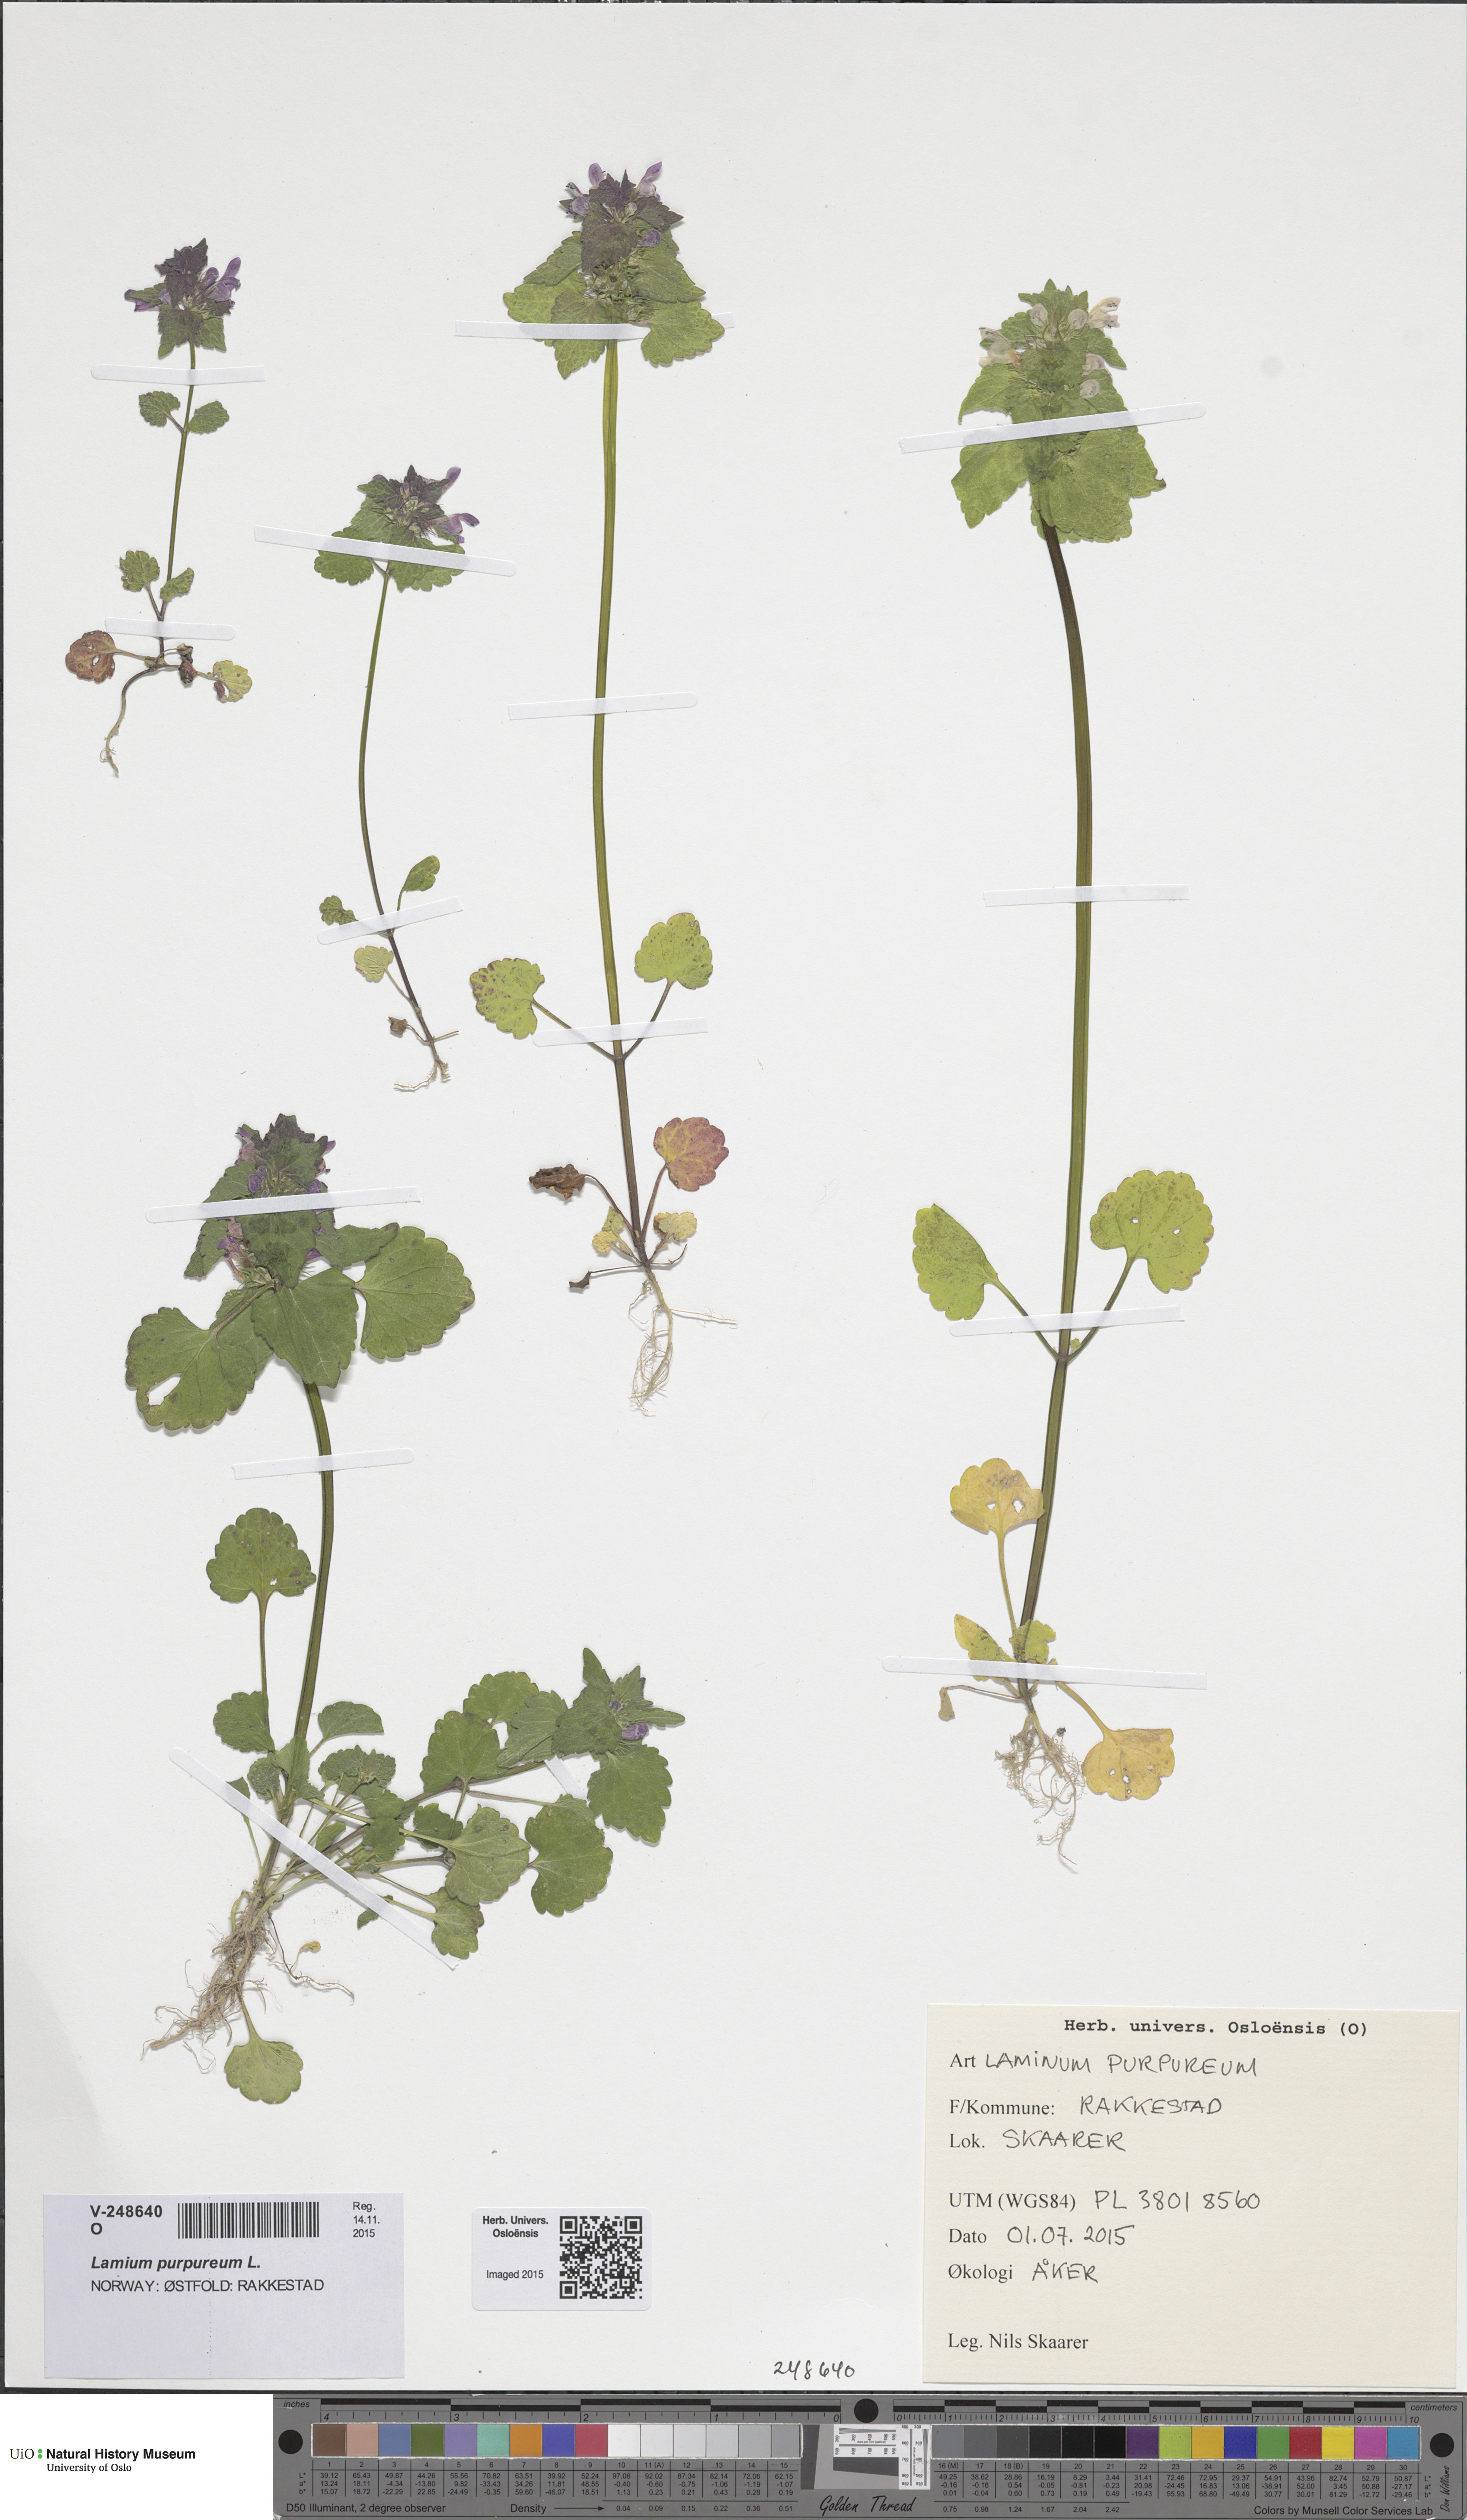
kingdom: Plantae
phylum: Tracheophyta
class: Magnoliopsida
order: Lamiales
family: Lamiaceae
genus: Lamium
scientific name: Lamium purpureum
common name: Red dead-nettle
